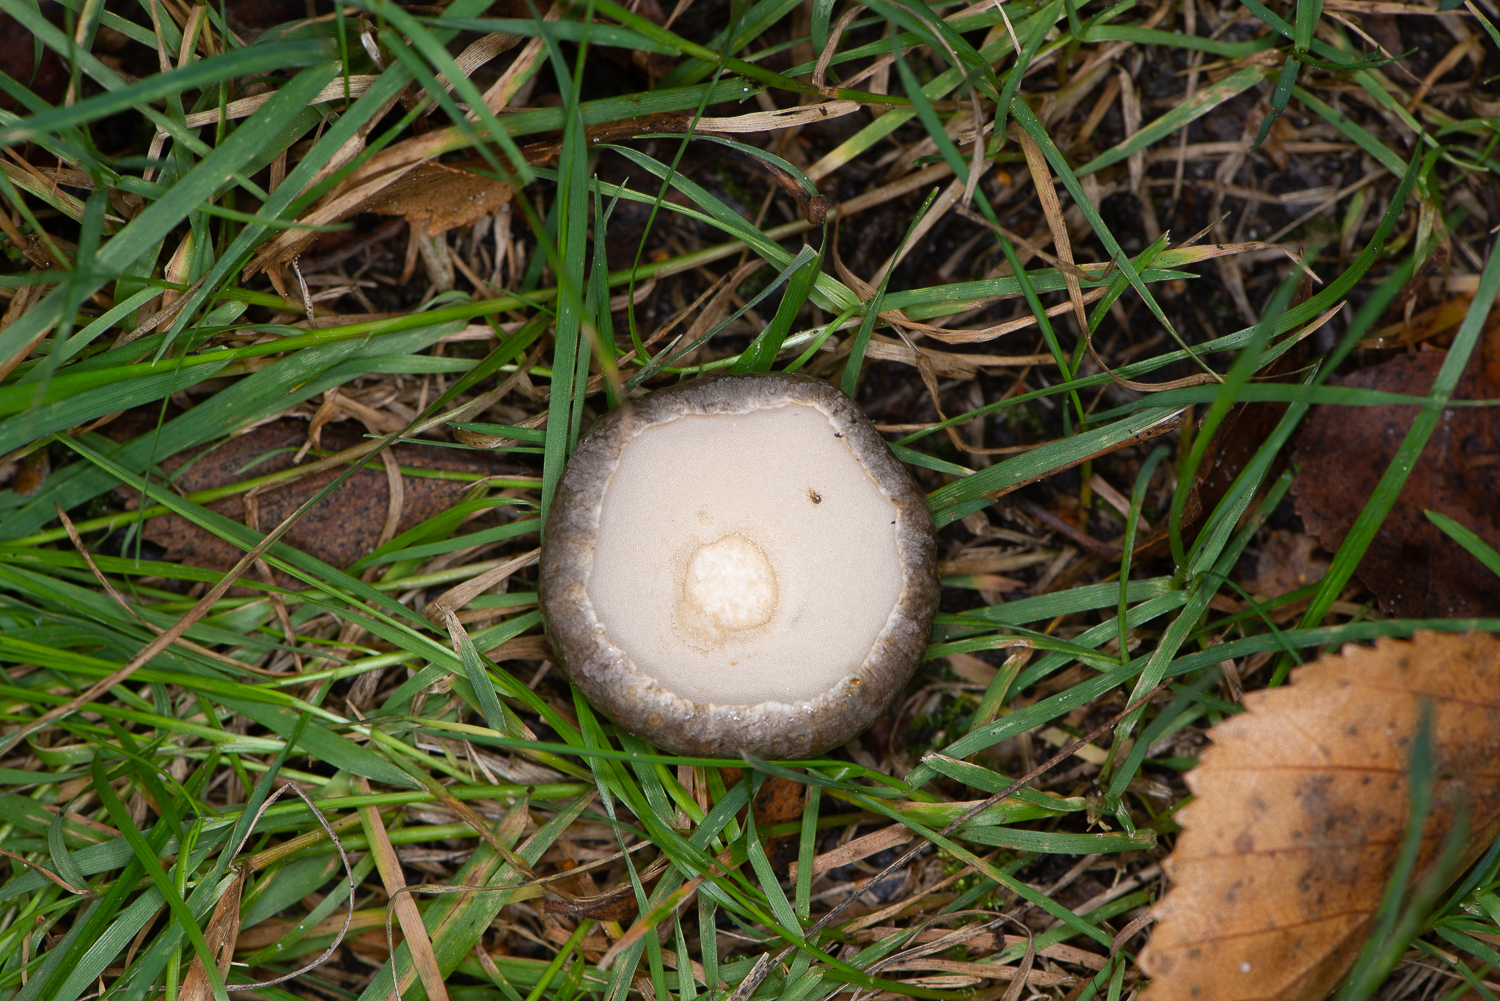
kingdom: Fungi
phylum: Basidiomycota
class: Agaricomycetes
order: Boletales
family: Boletaceae
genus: Leccinum
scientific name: Leccinum
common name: skælrørhat
